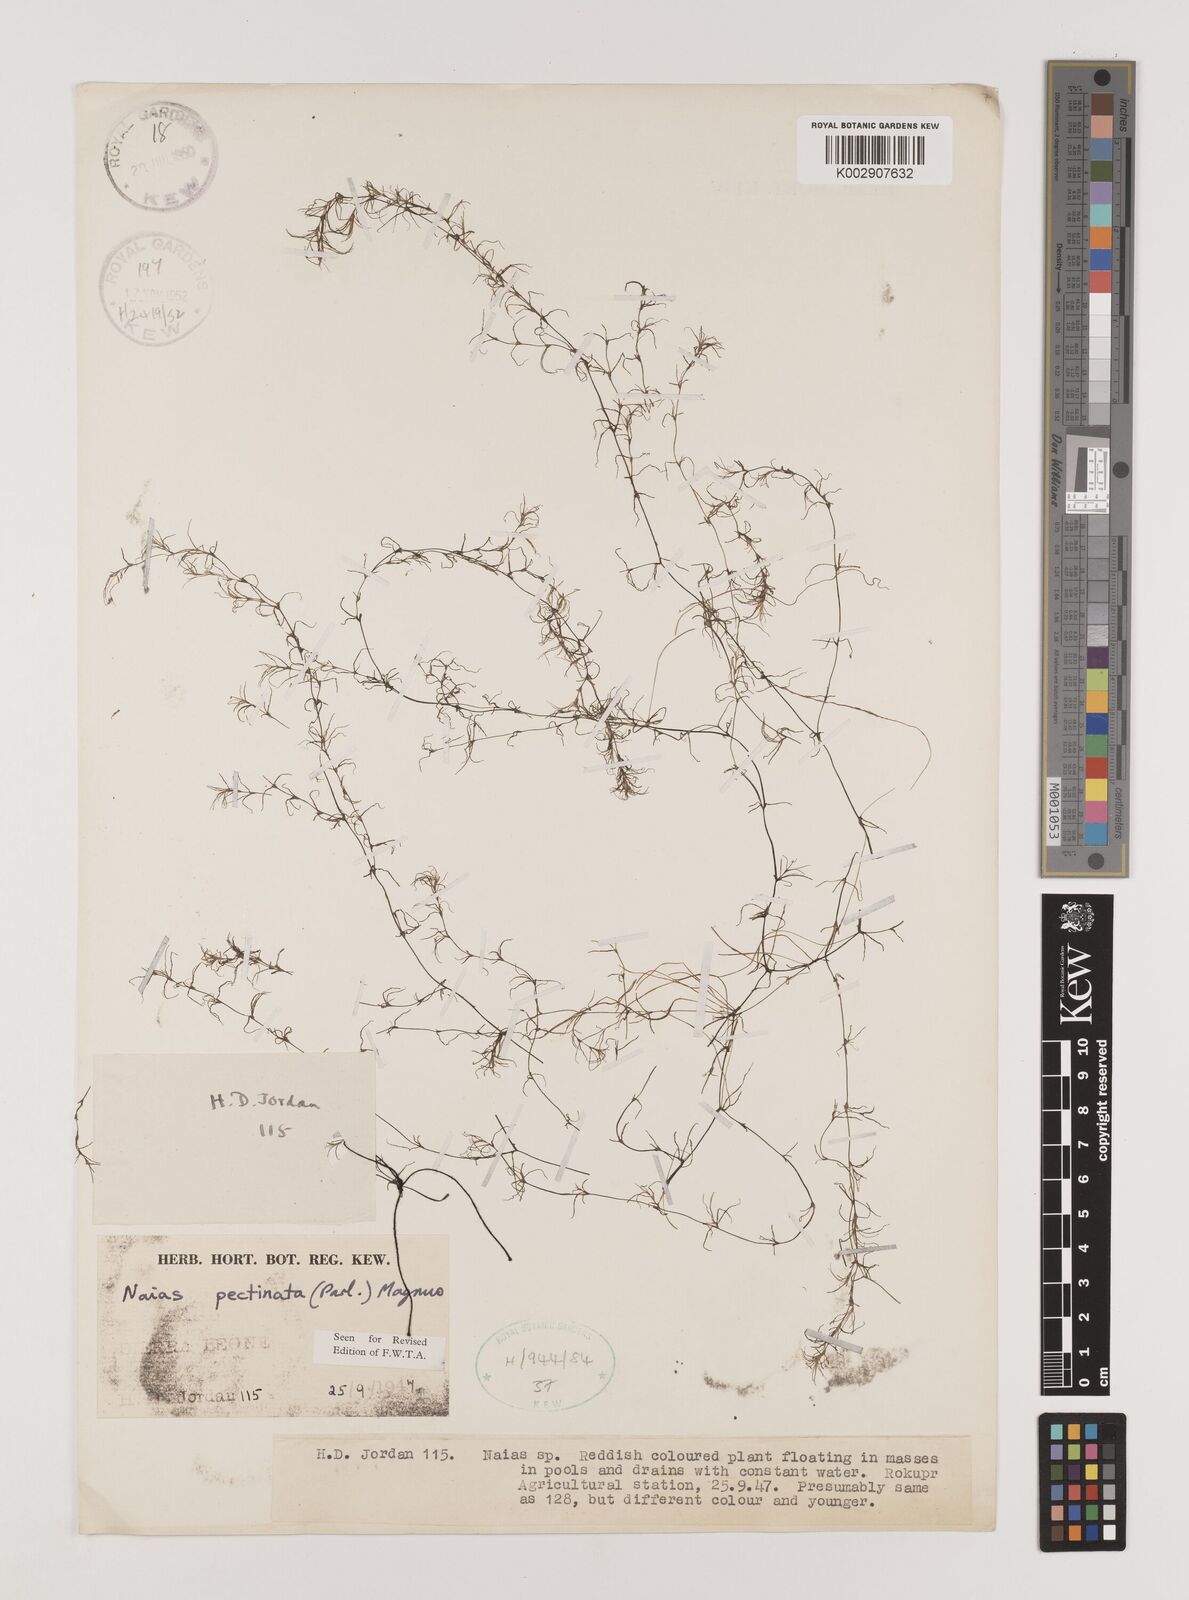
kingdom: Plantae
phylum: Tracheophyta
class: Liliopsida
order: Alismatales
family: Hydrocharitaceae
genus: Najas
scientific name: Najas pectinata
